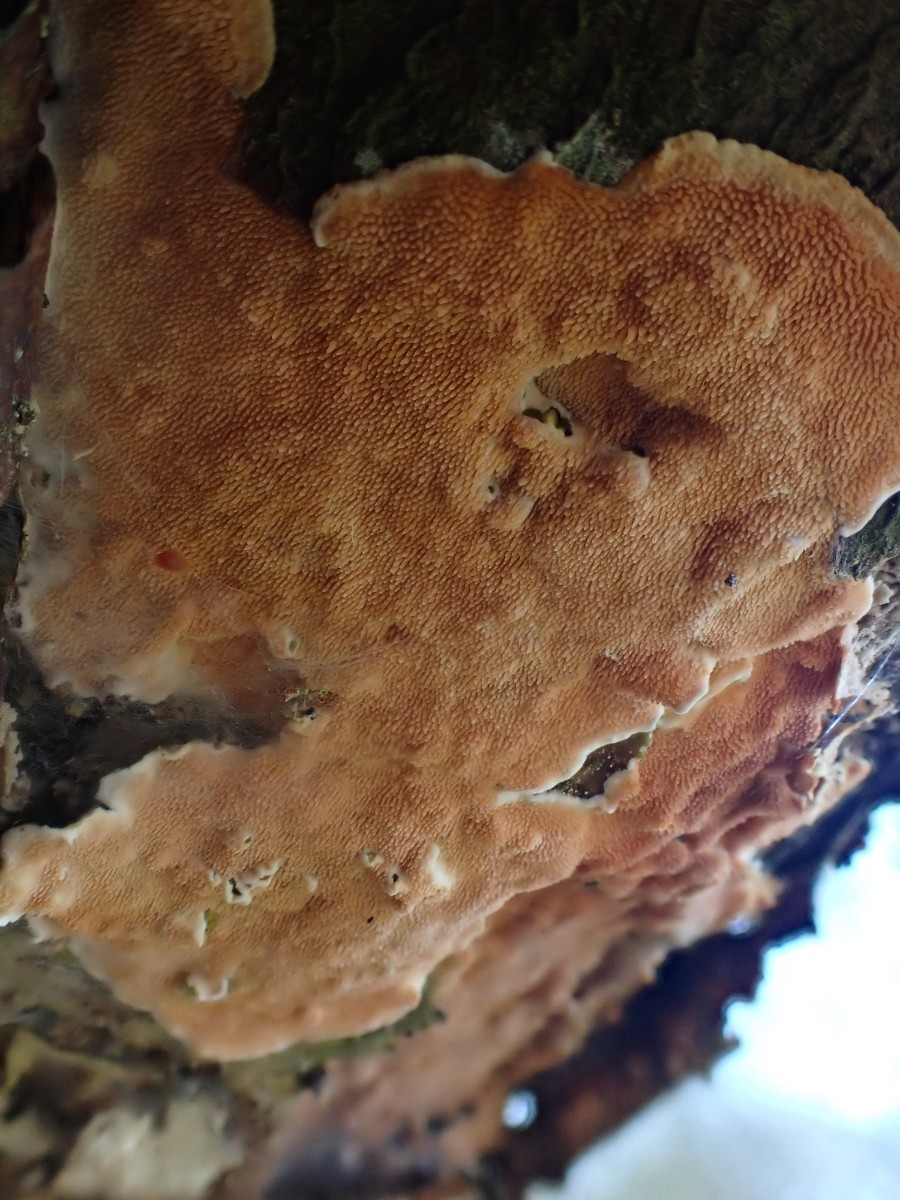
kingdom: Fungi
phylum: Basidiomycota
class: Agaricomycetes
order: Polyporales
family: Steccherinaceae
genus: Steccherinum
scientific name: Steccherinum ochraceum
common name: almindelig skønpig
